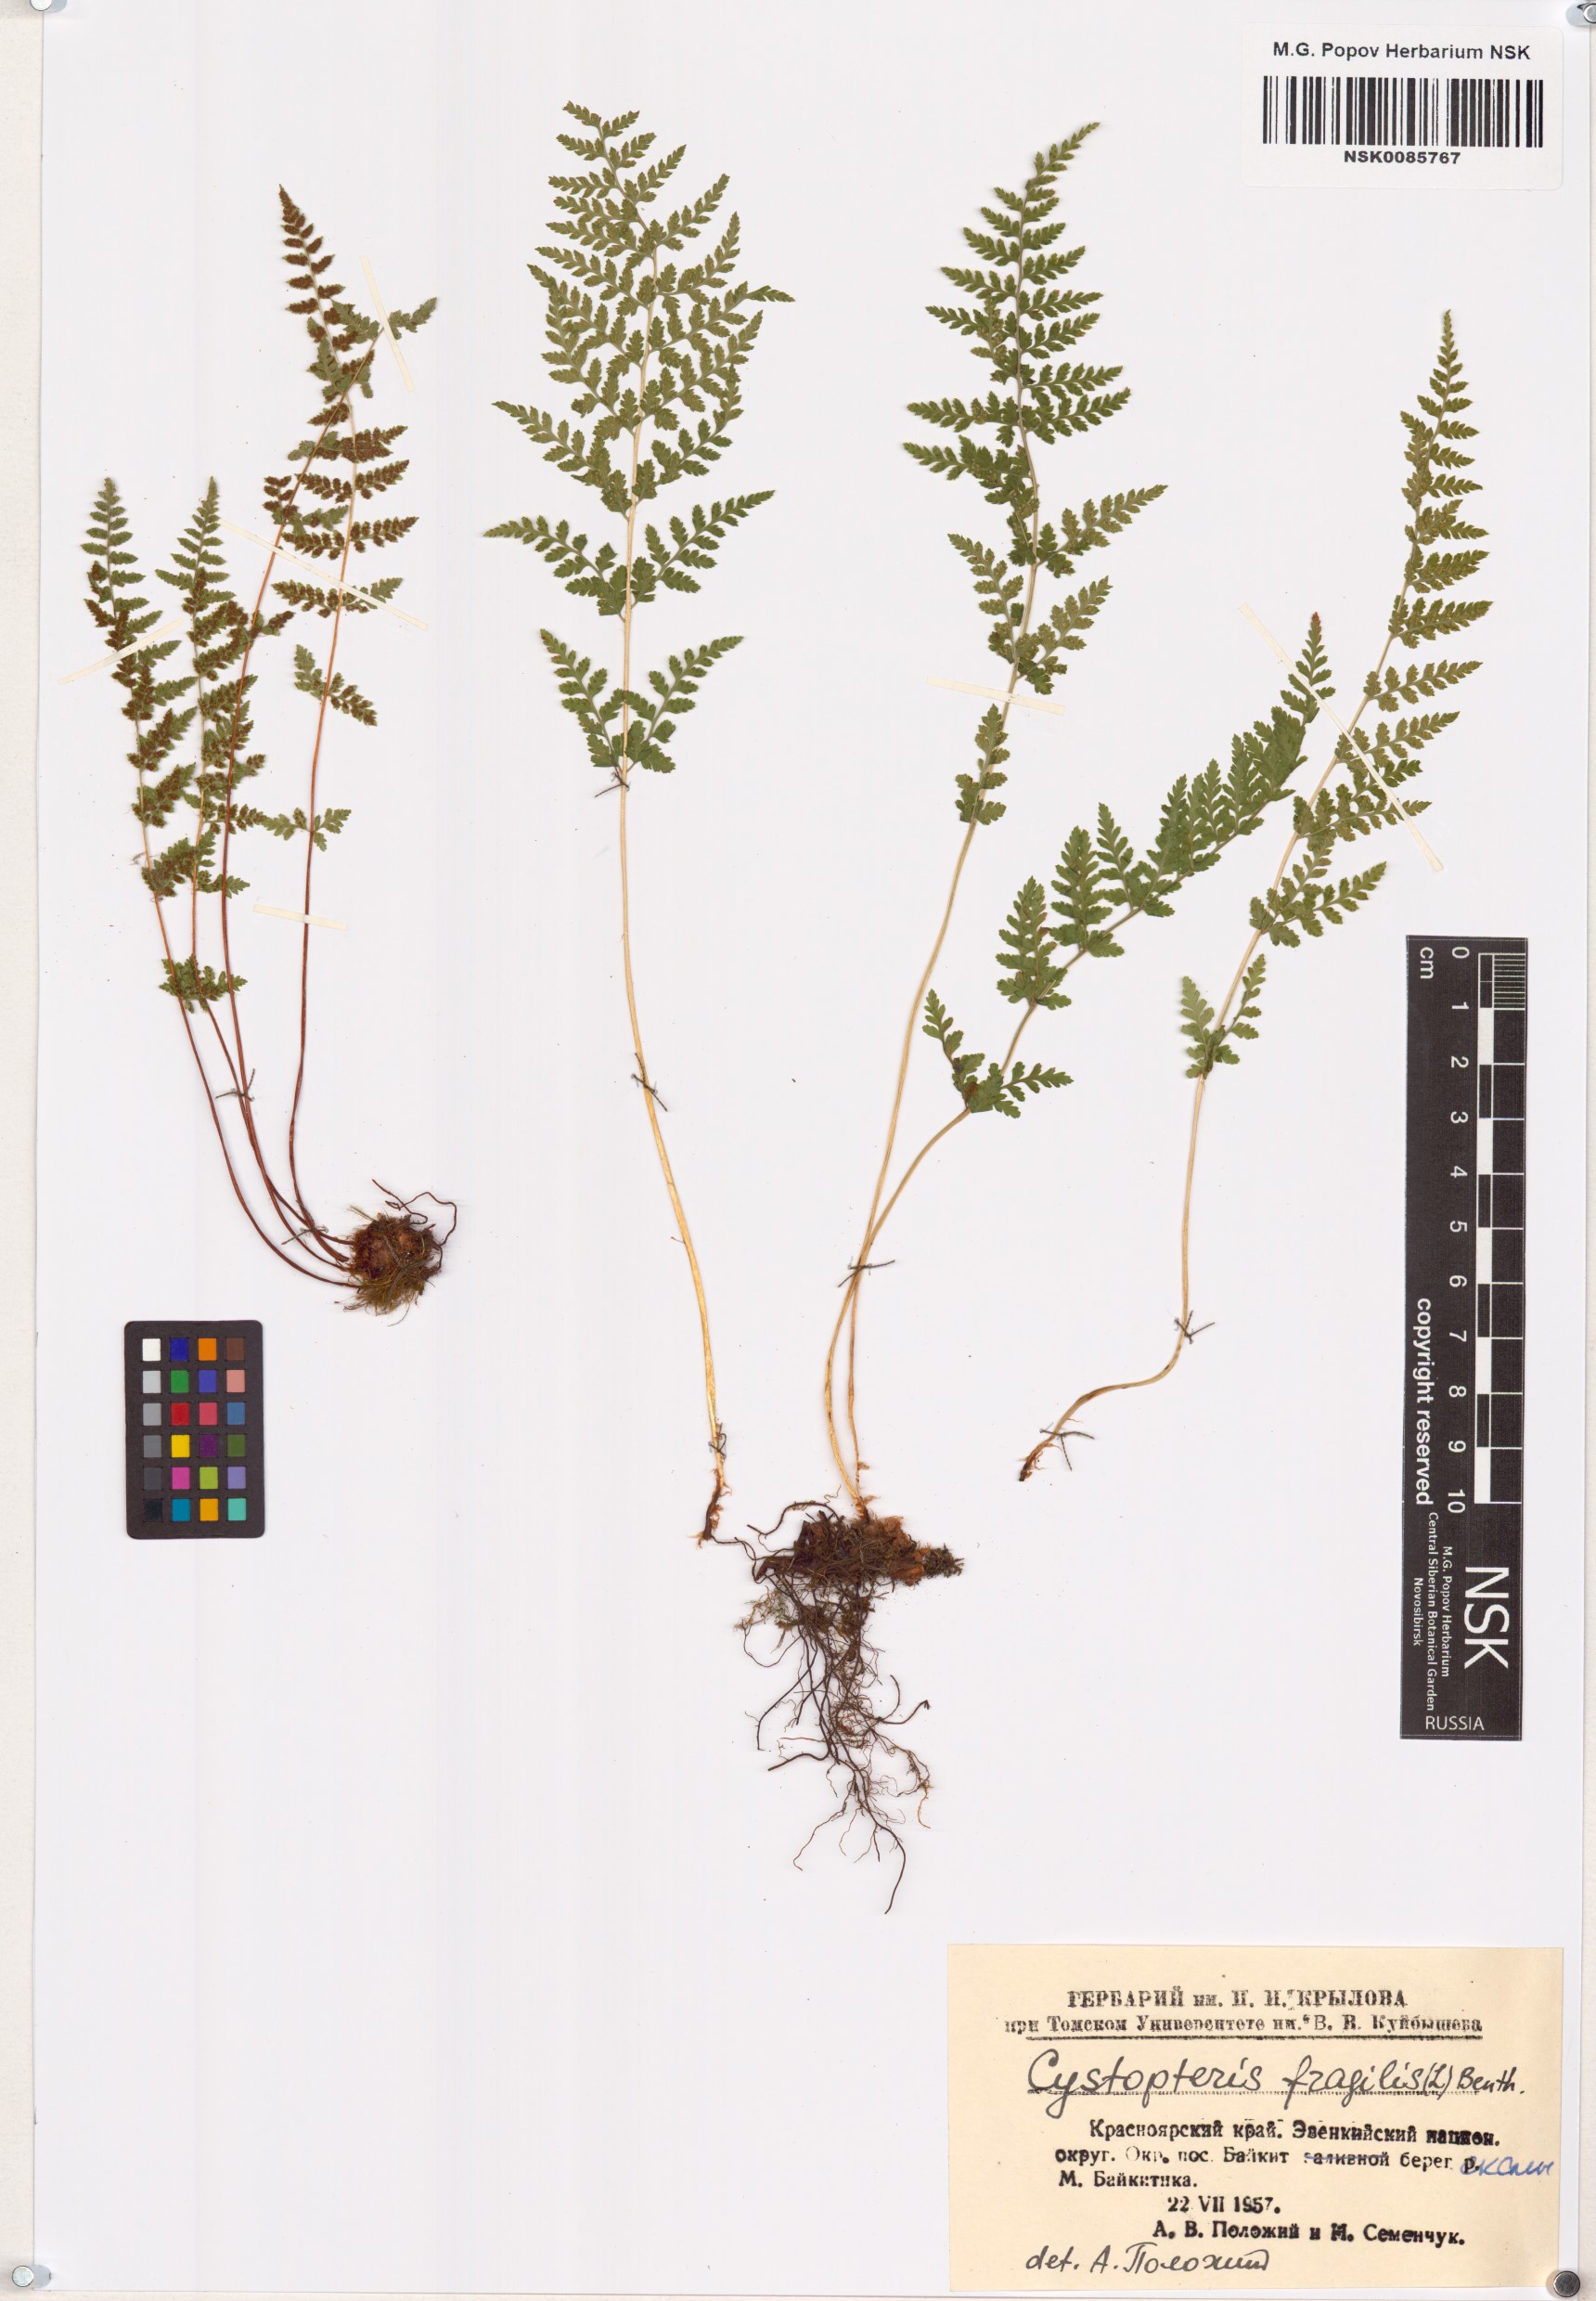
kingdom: Plantae
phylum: Tracheophyta
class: Polypodiopsida
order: Polypodiales
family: Cystopteridaceae
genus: Cystopteris
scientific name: Cystopteris fragilis
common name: Brittle bladder fern
